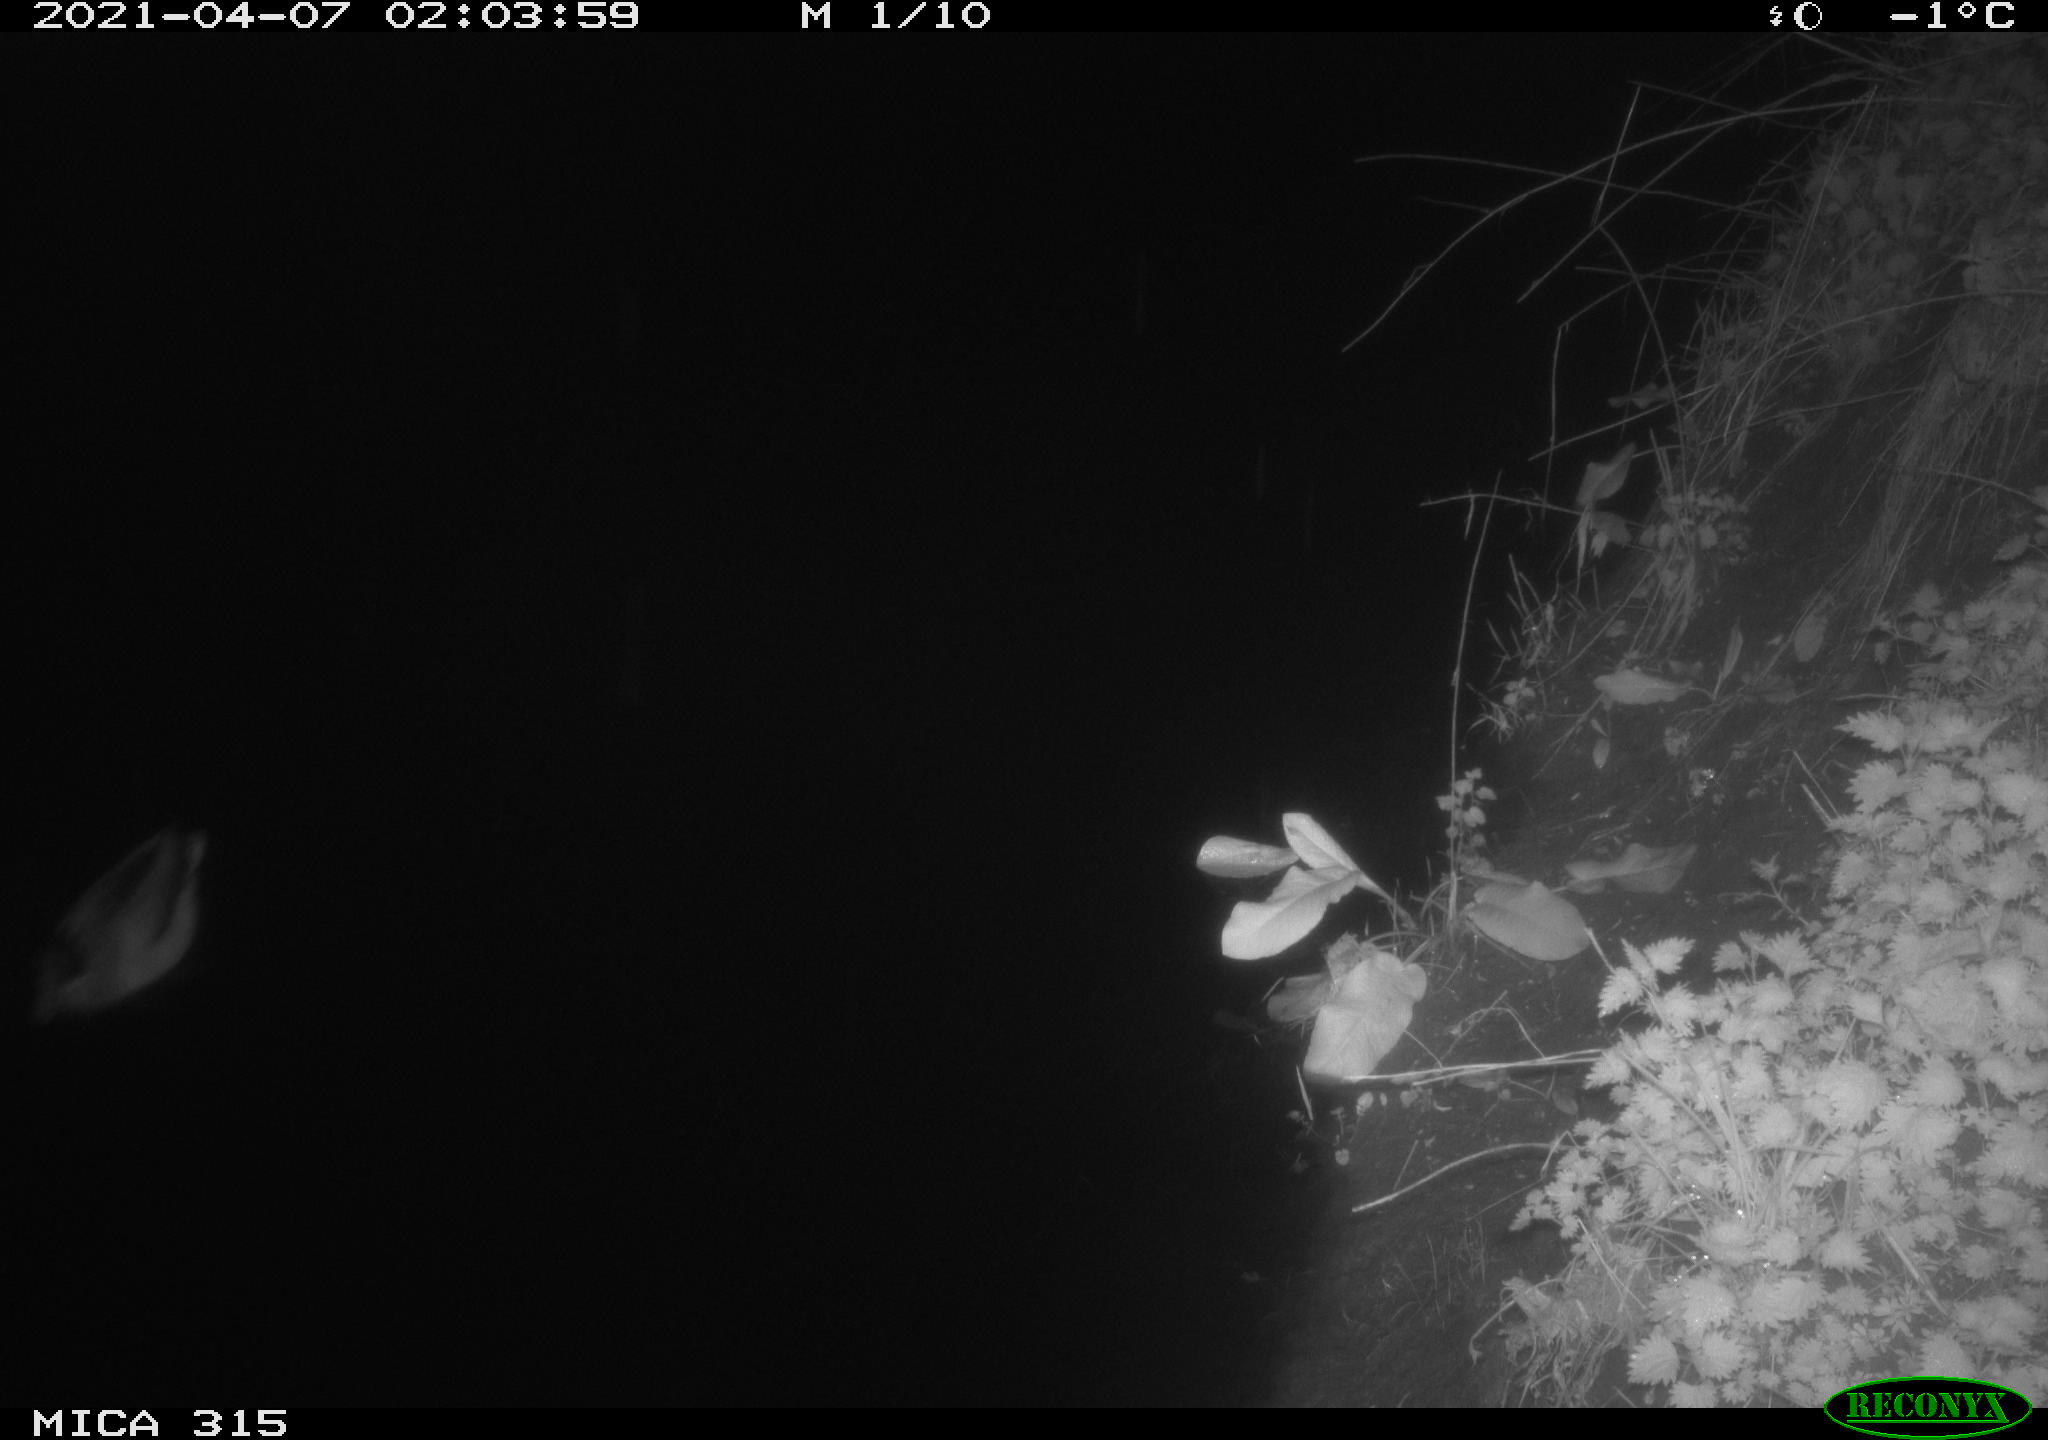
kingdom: Animalia
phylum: Chordata
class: Aves
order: Anseriformes
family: Anatidae
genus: Anas
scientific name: Anas platyrhynchos
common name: Mallard
